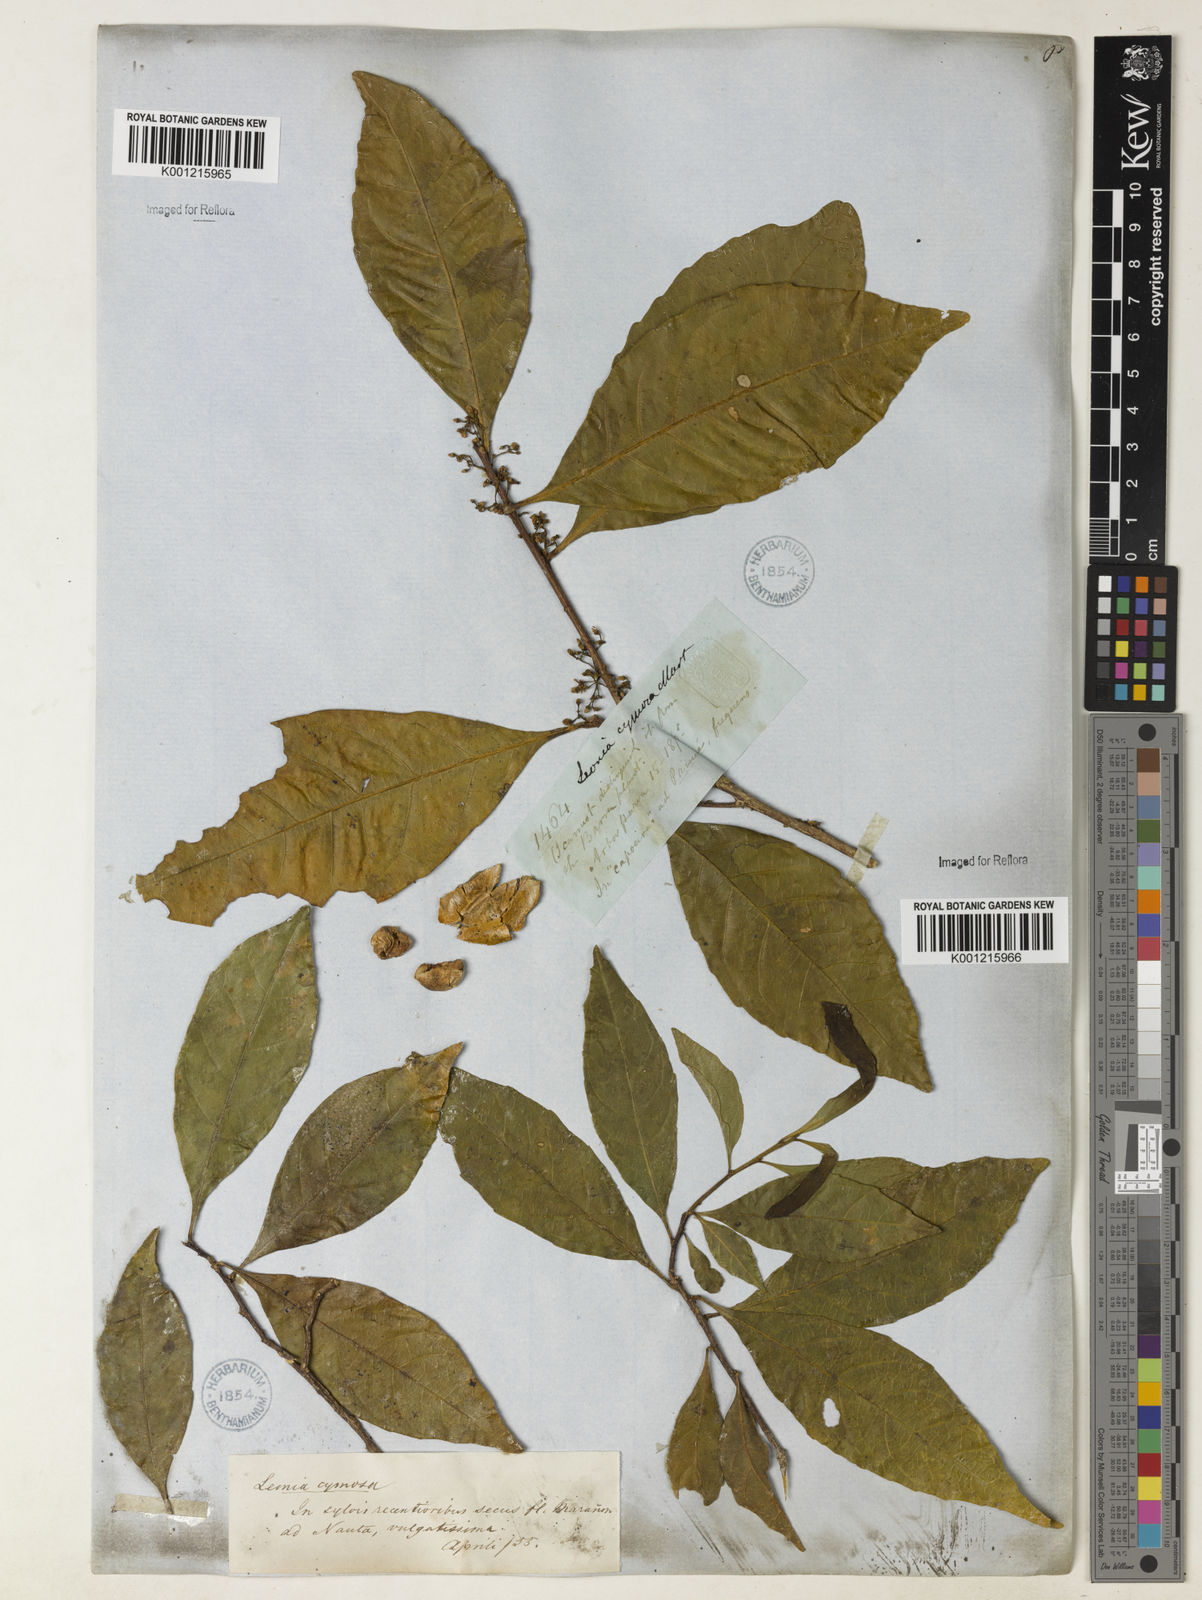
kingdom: Plantae
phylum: Tracheophyta
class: Magnoliopsida
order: Malpighiales
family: Violaceae
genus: Leonia
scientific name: Leonia cymosa
